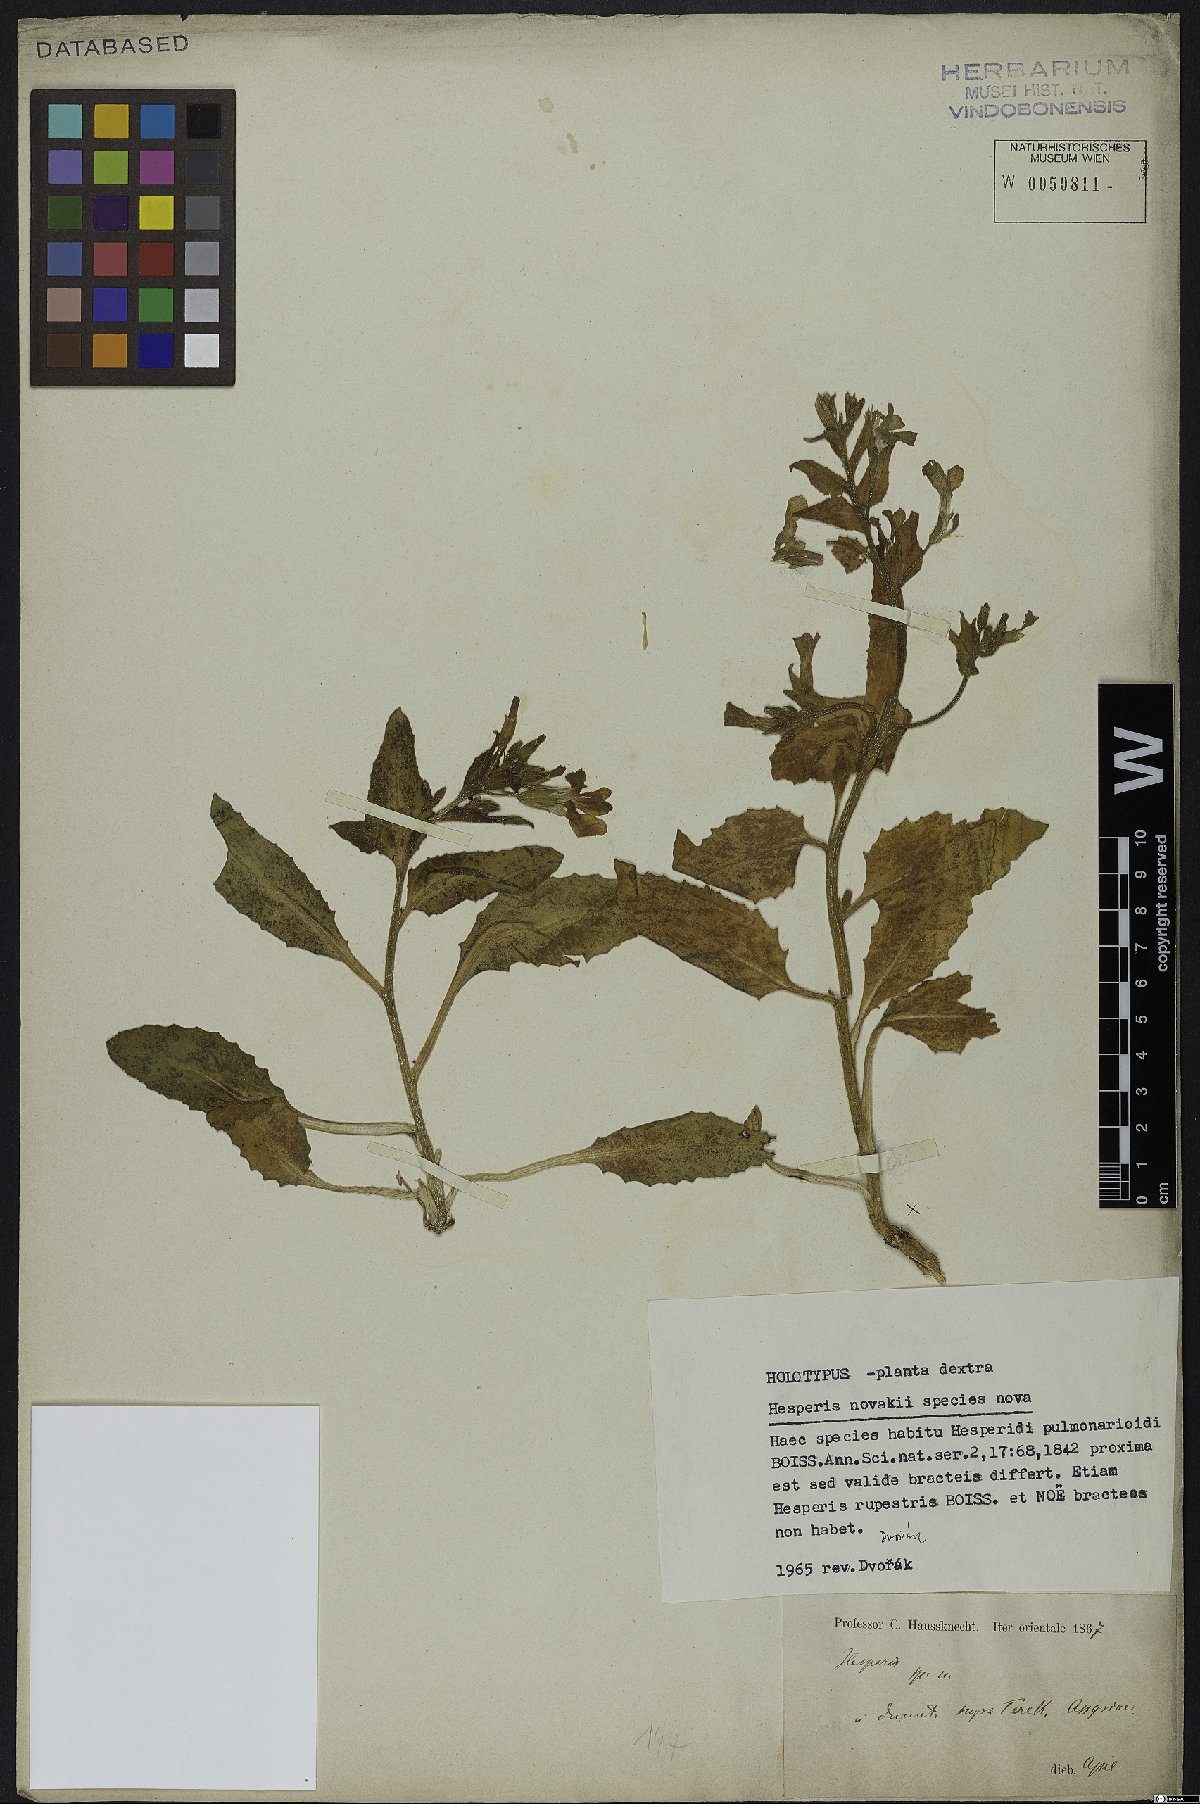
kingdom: Plantae
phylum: Tracheophyta
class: Magnoliopsida
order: Brassicales
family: Brassicaceae
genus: Hesperis
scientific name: Hesperis novakii
